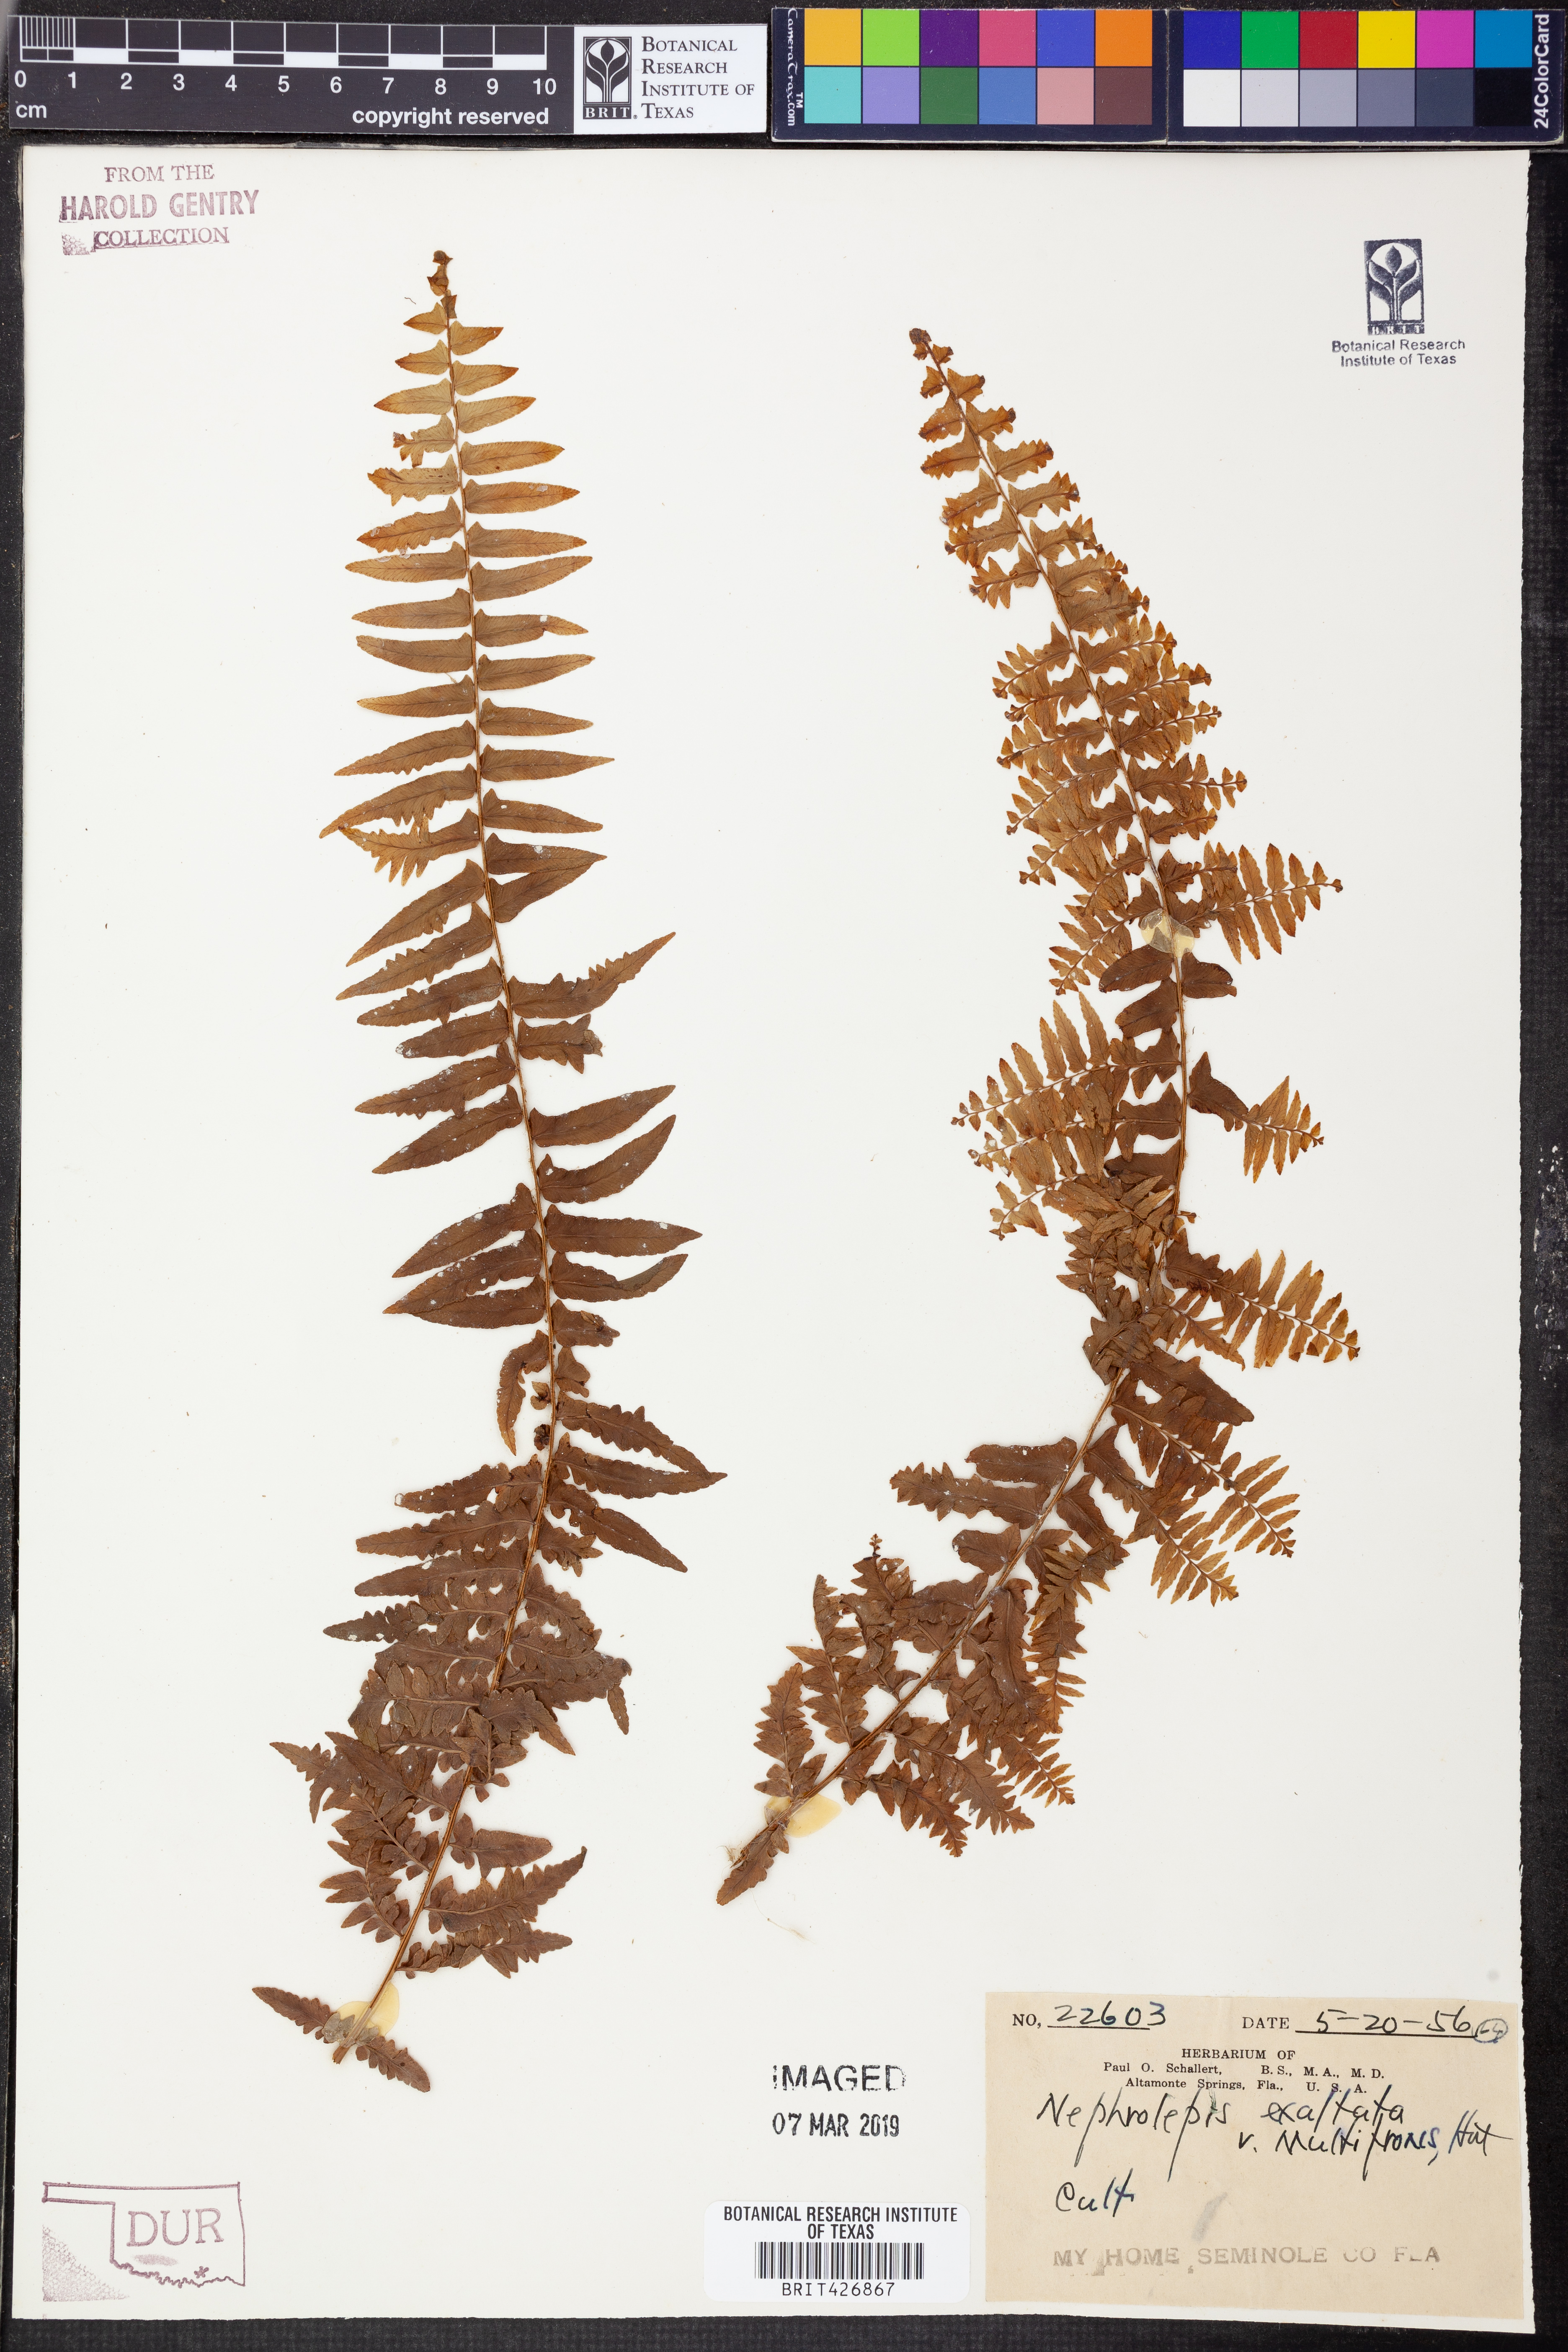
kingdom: Plantae
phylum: Tracheophyta
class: Polypodiopsida
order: Polypodiales
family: Nephrolepidaceae
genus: Nephrolepis
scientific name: Nephrolepis exaltata
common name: Sword fern
